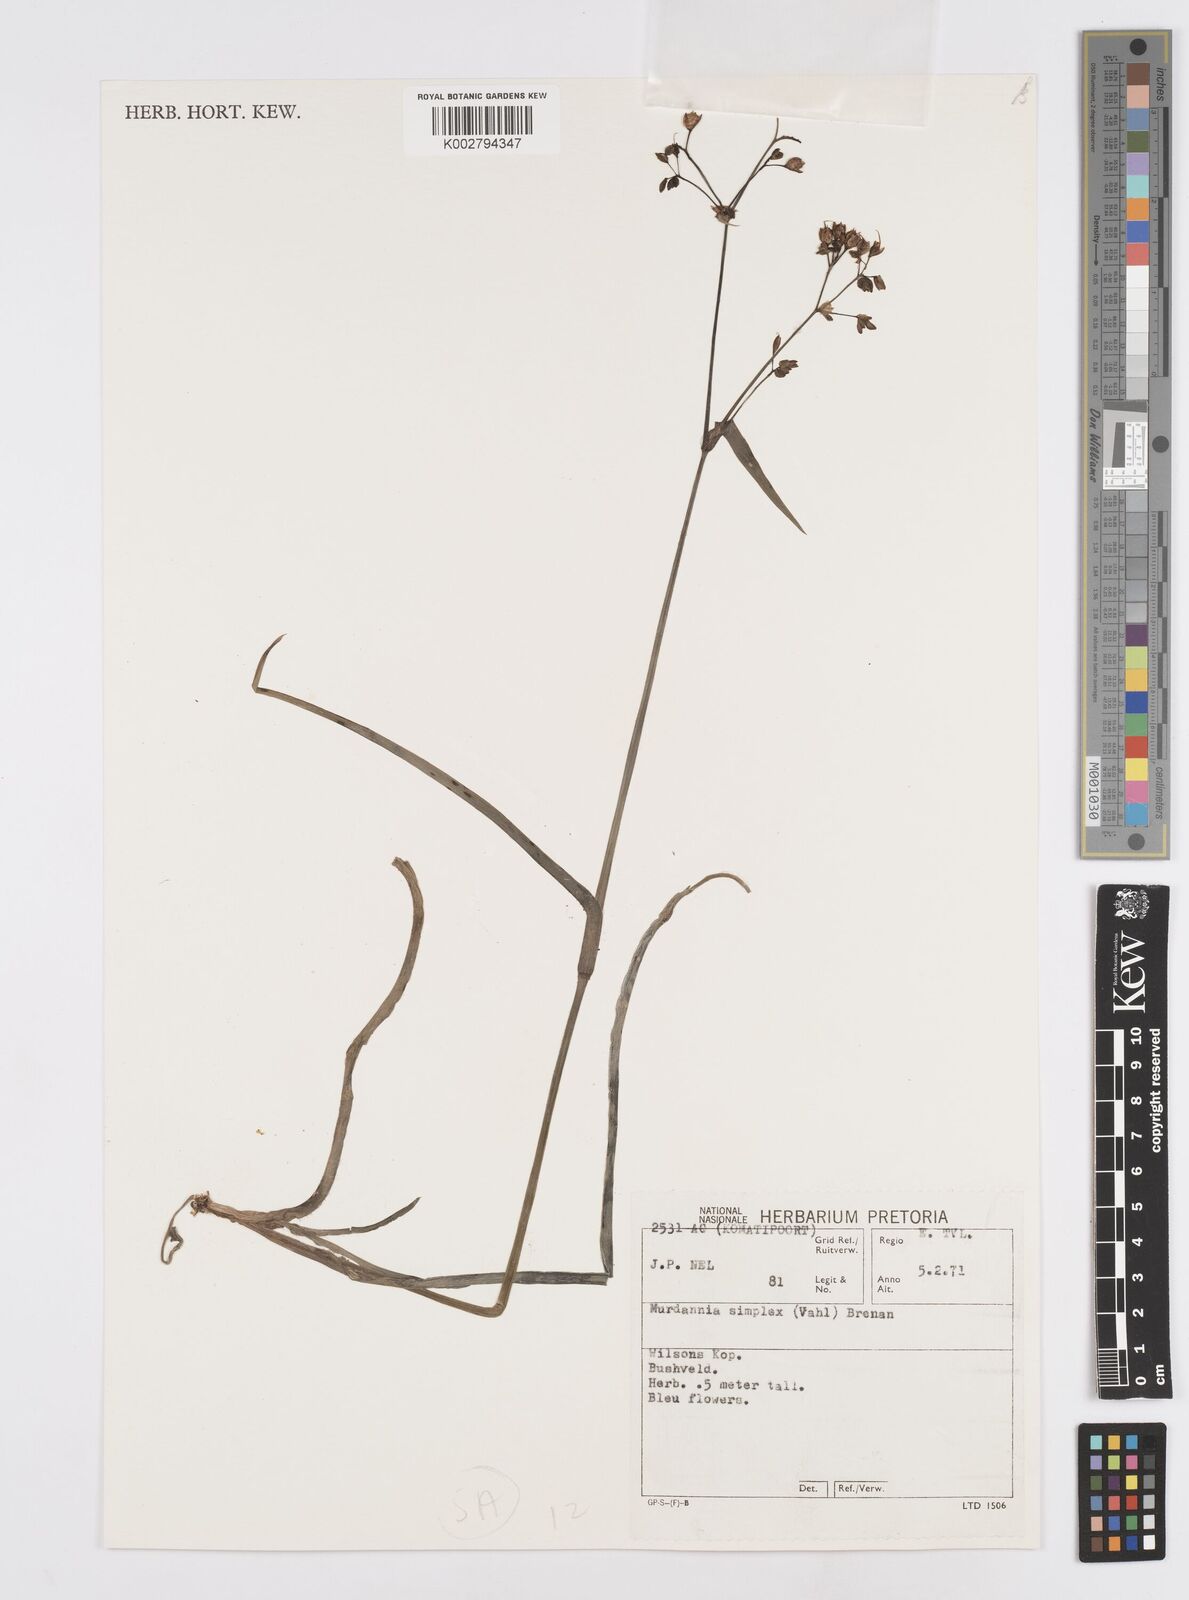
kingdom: Plantae
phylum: Tracheophyta
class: Liliopsida
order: Commelinales
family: Commelinaceae
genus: Murdannia
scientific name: Murdannia simplex
